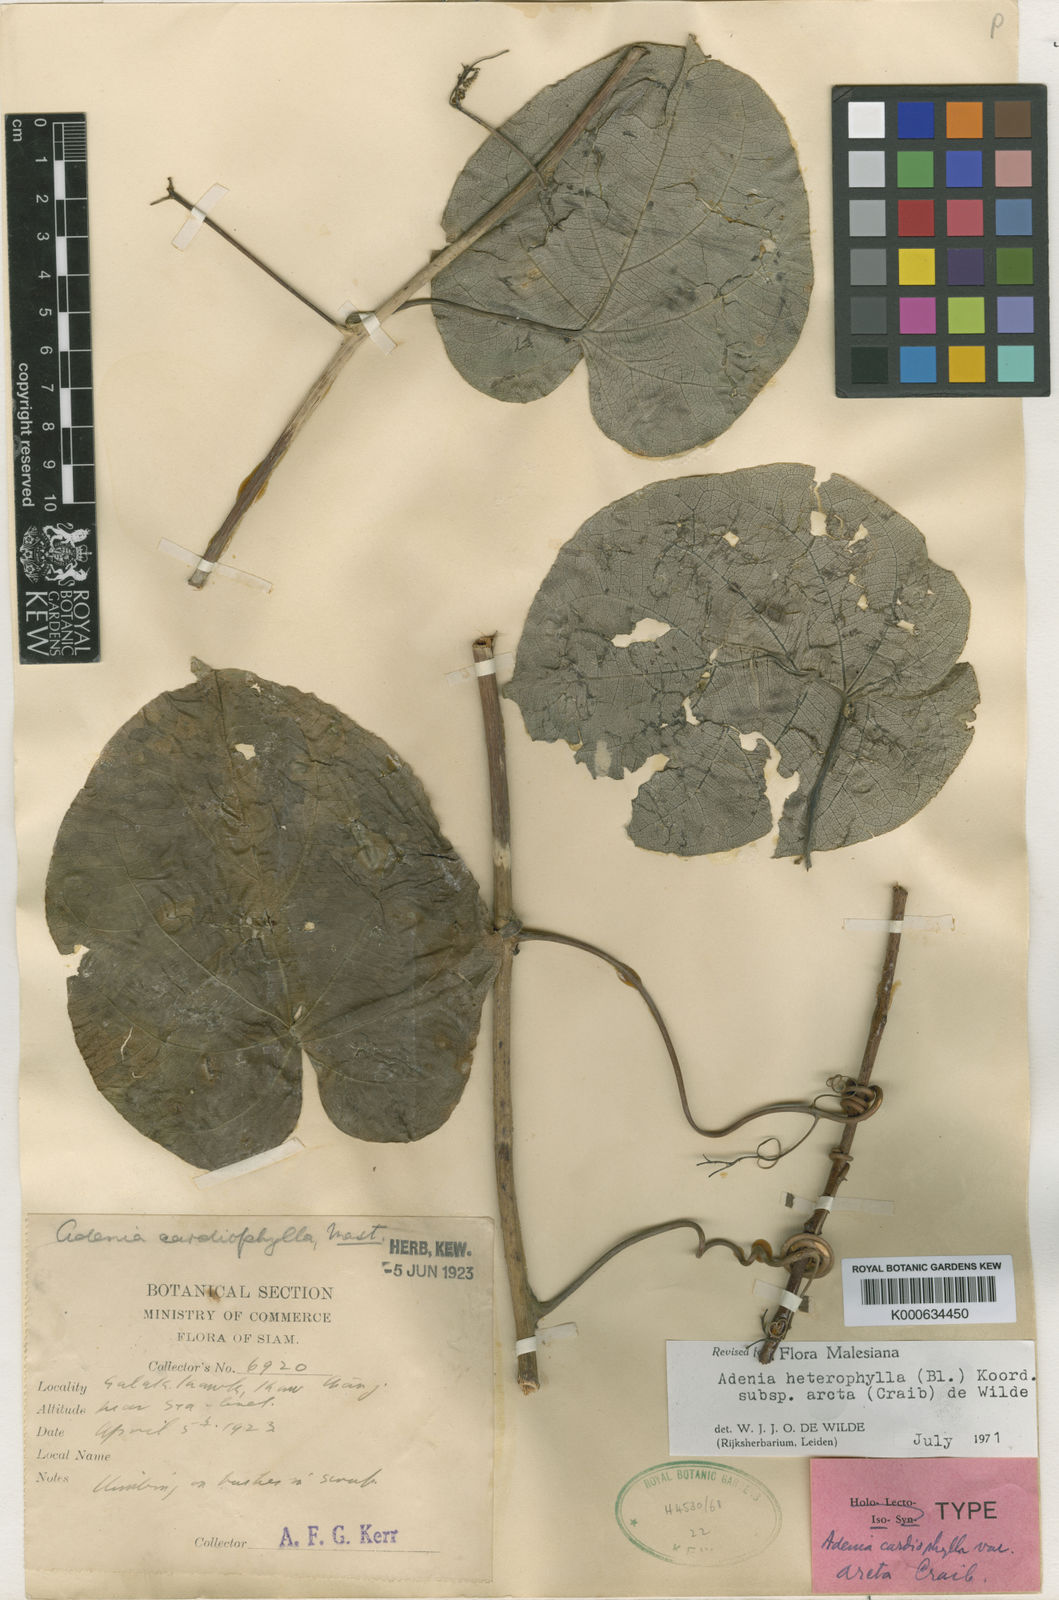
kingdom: Plantae
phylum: Tracheophyta
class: Magnoliopsida
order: Malpighiales
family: Passifloraceae
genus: Adenia
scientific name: Adenia heterophylla
